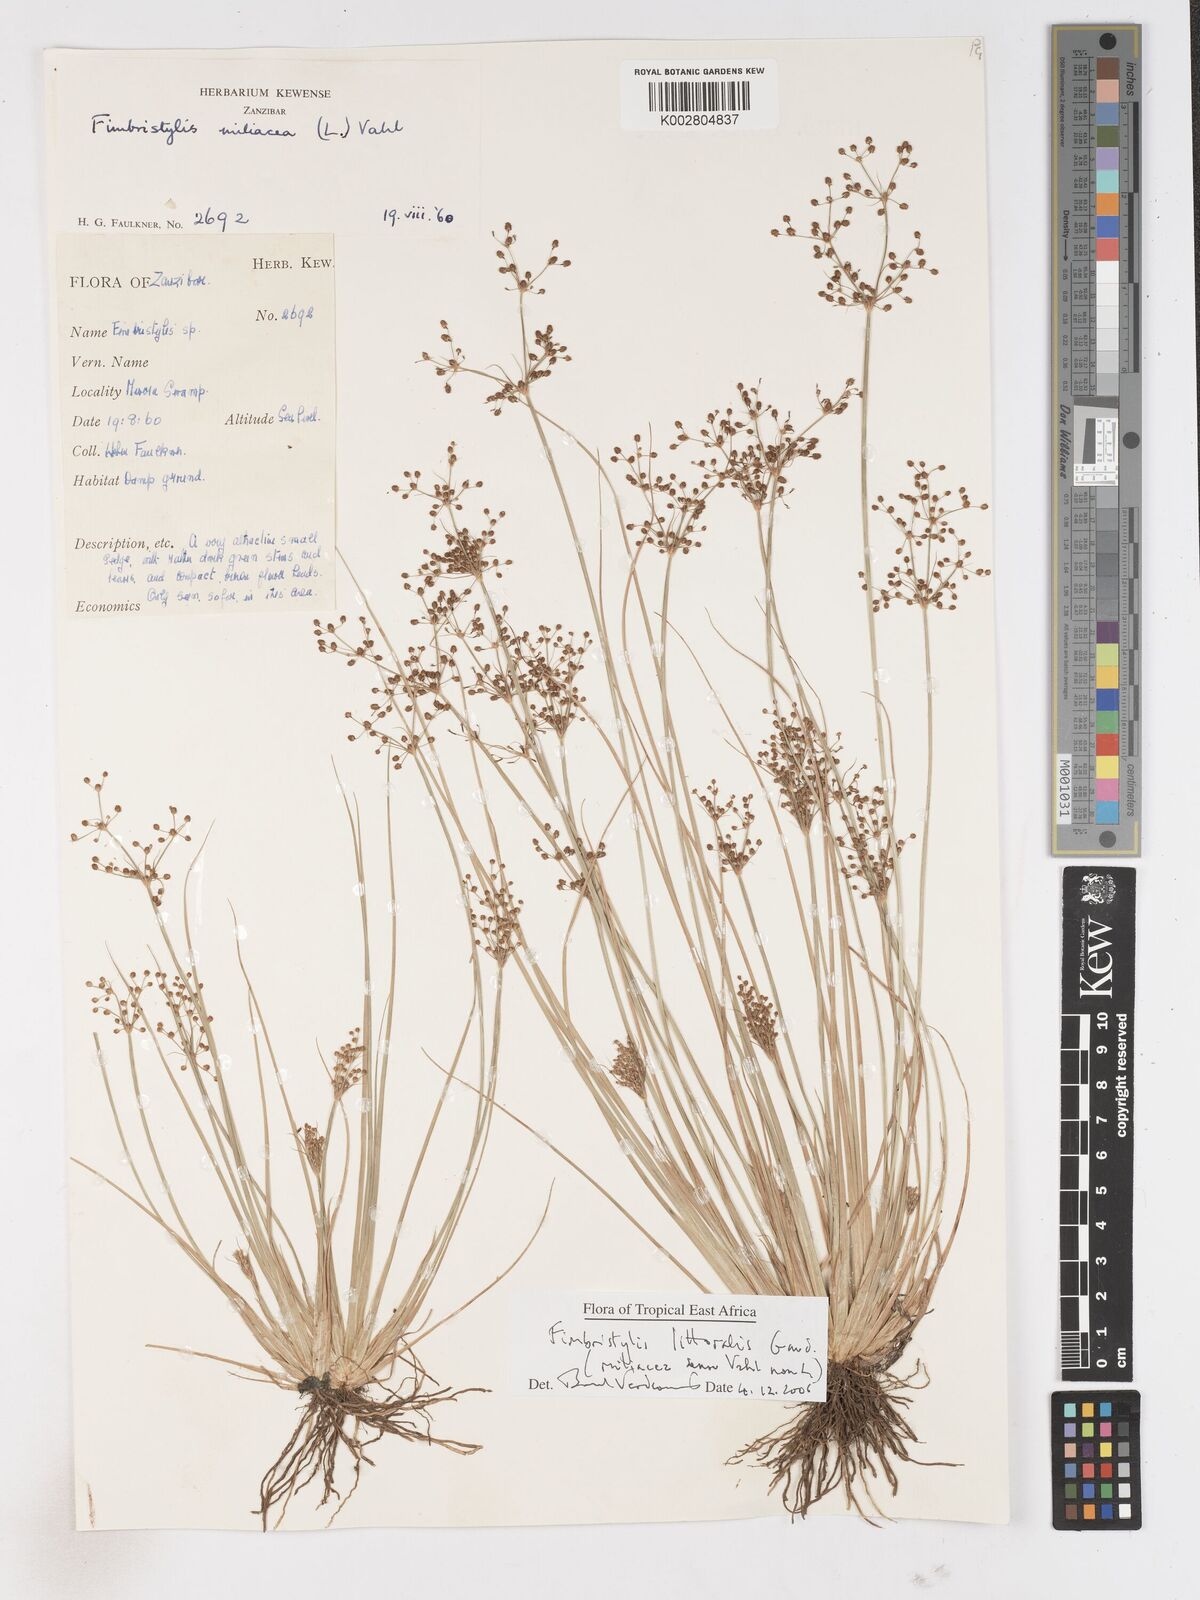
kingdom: Plantae
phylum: Tracheophyta
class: Liliopsida
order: Poales
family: Cyperaceae
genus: Fimbristylis
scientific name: Fimbristylis littoralis
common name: Fimbry
